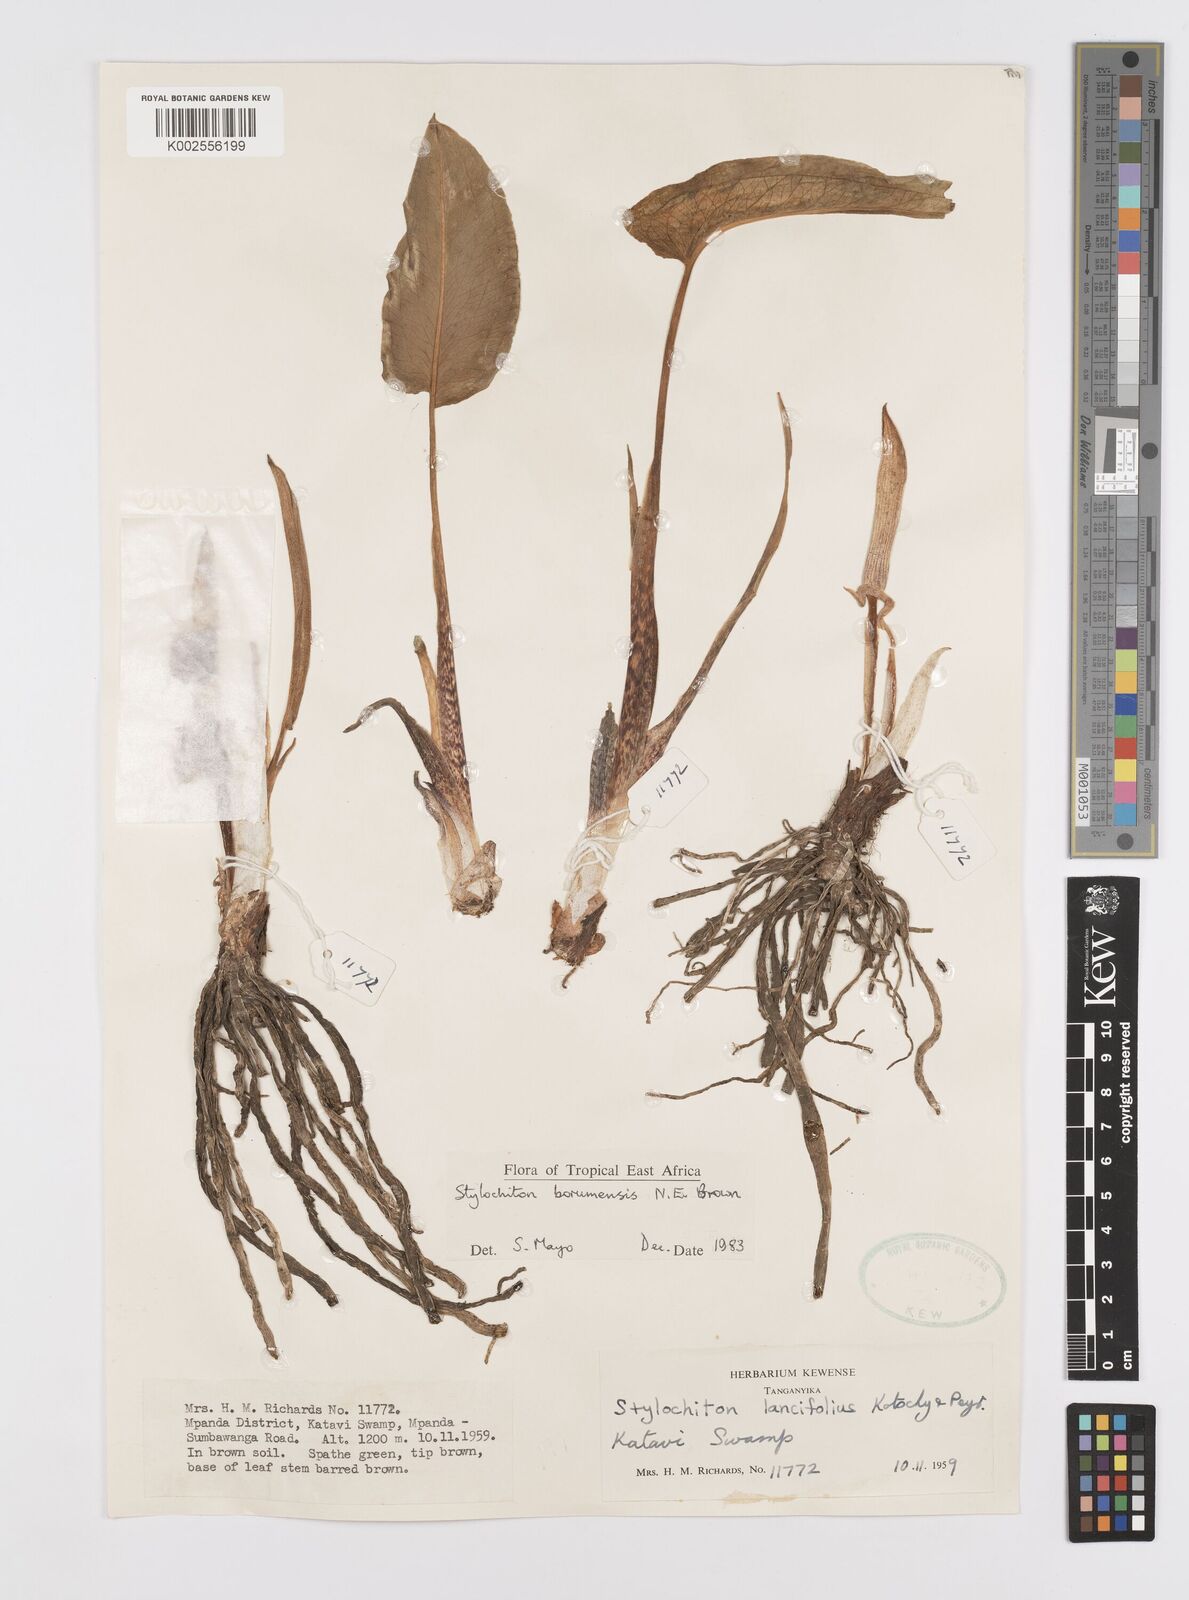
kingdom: Plantae
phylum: Tracheophyta
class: Liliopsida
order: Alismatales
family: Araceae
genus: Stylochaeton
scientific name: Stylochaeton borumense
